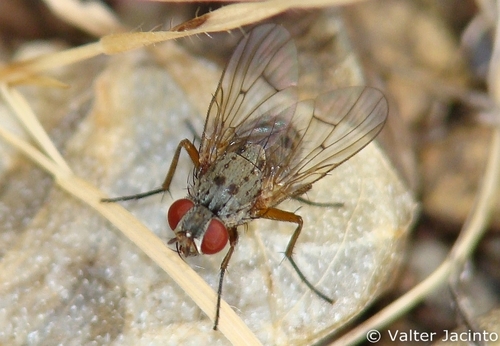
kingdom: Animalia
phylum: Arthropoda
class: Insecta
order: Diptera
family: Muscidae
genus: Helina
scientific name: Helina sexmaculata
